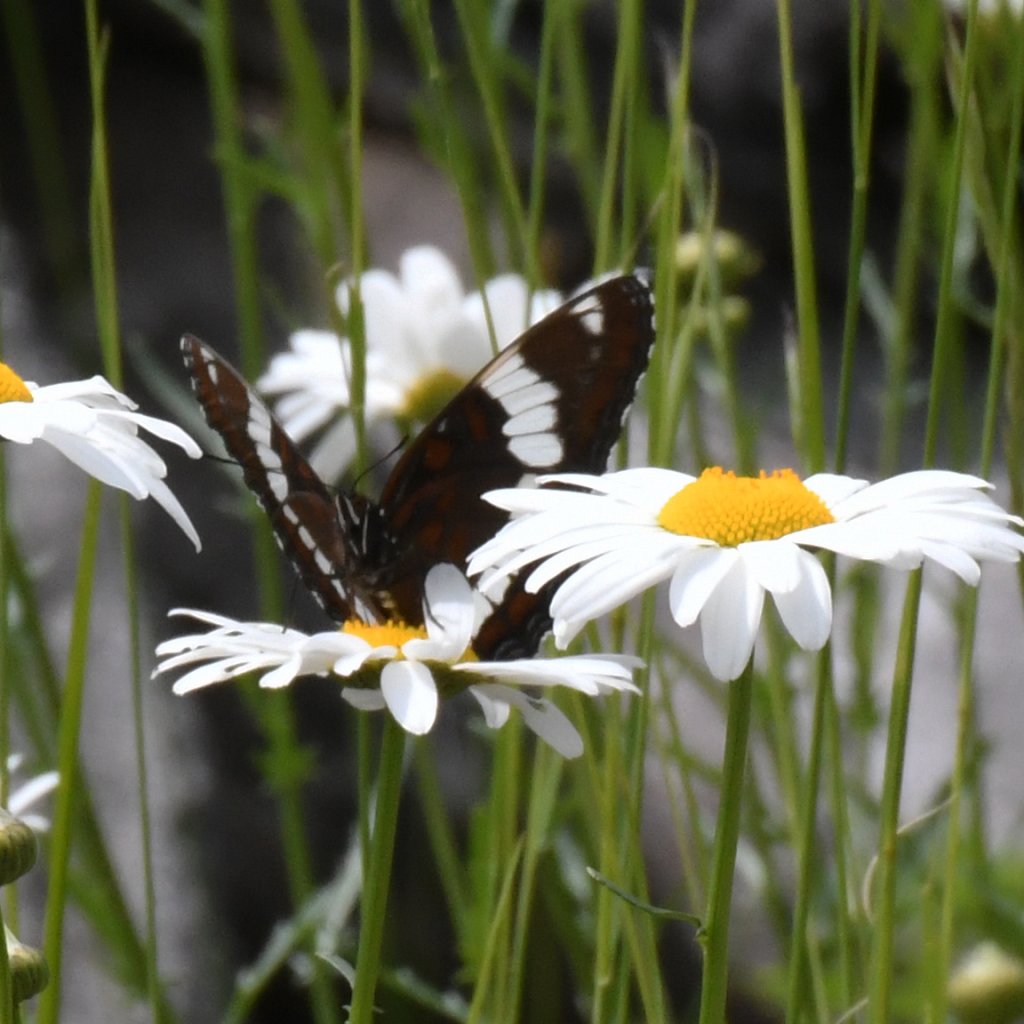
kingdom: Animalia
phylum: Arthropoda
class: Insecta
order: Lepidoptera
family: Nymphalidae
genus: Limenitis
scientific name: Limenitis arthemis
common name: Red-spotted Admiral
